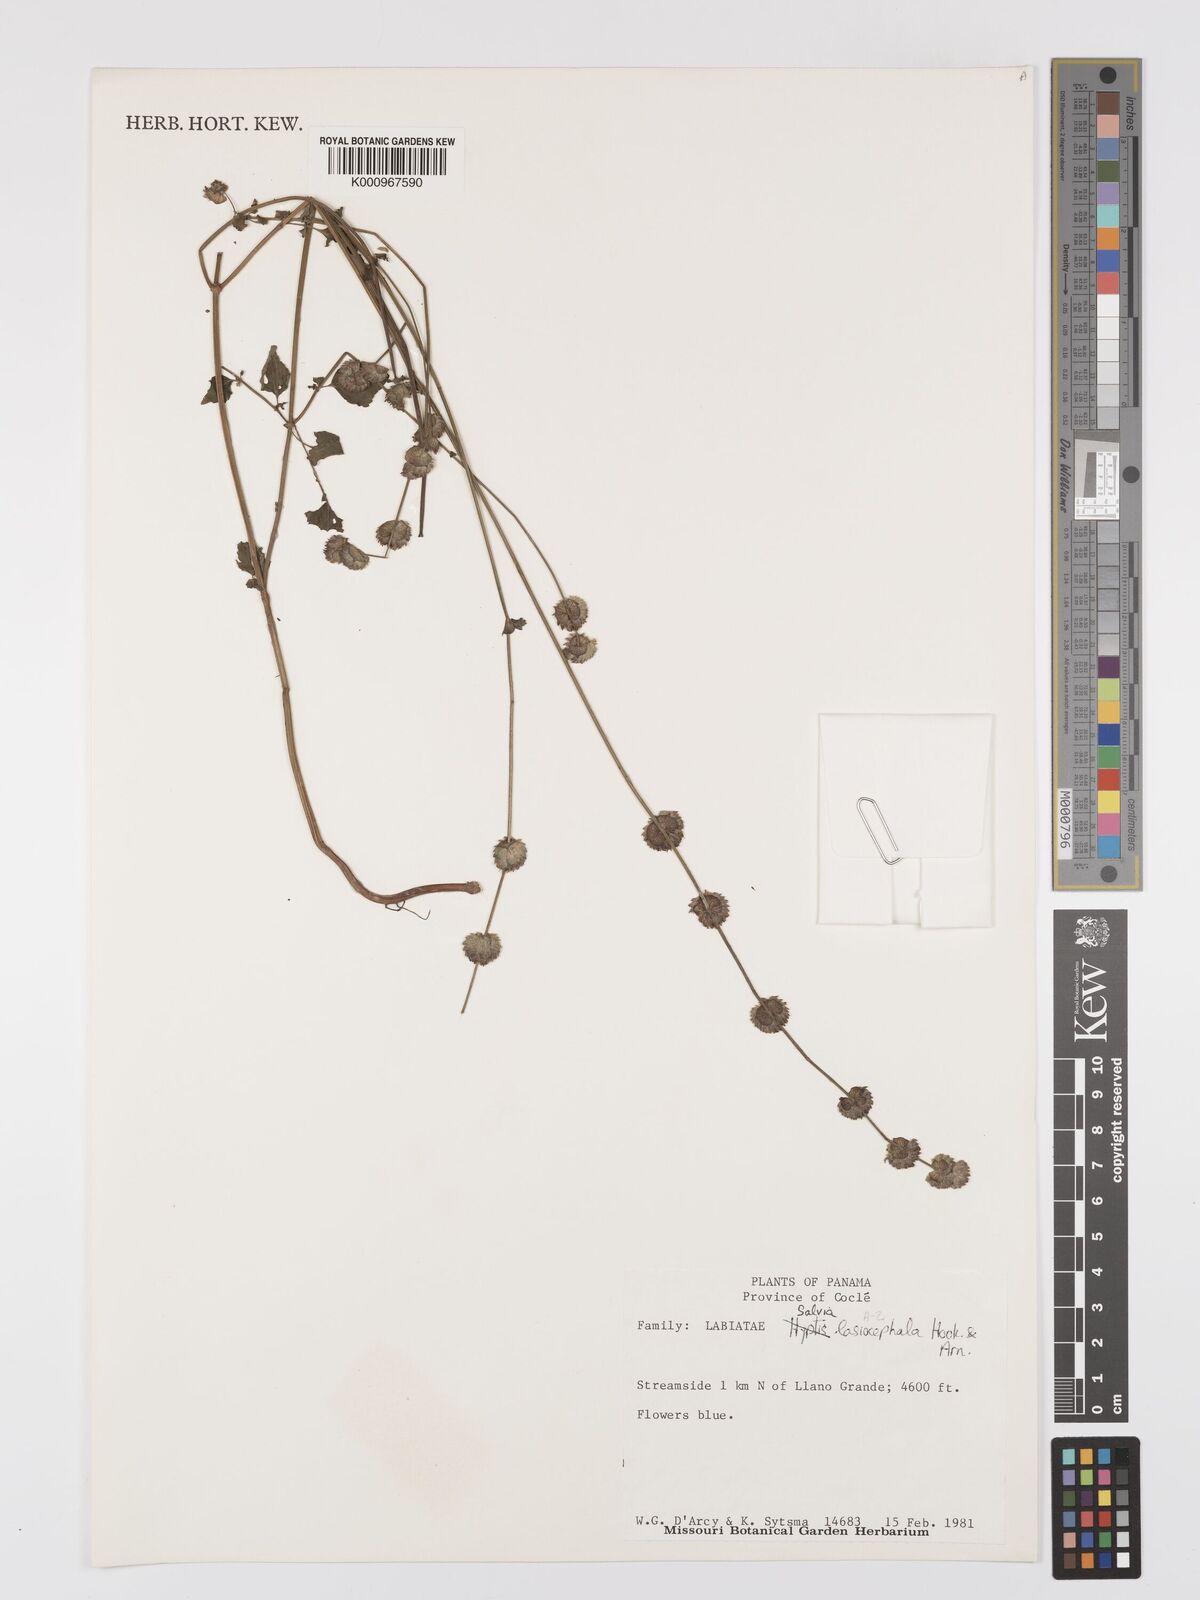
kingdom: Plantae
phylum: Tracheophyta
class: Magnoliopsida
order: Lamiales
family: Lamiaceae
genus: Salvia
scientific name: Salvia lasiocephala
